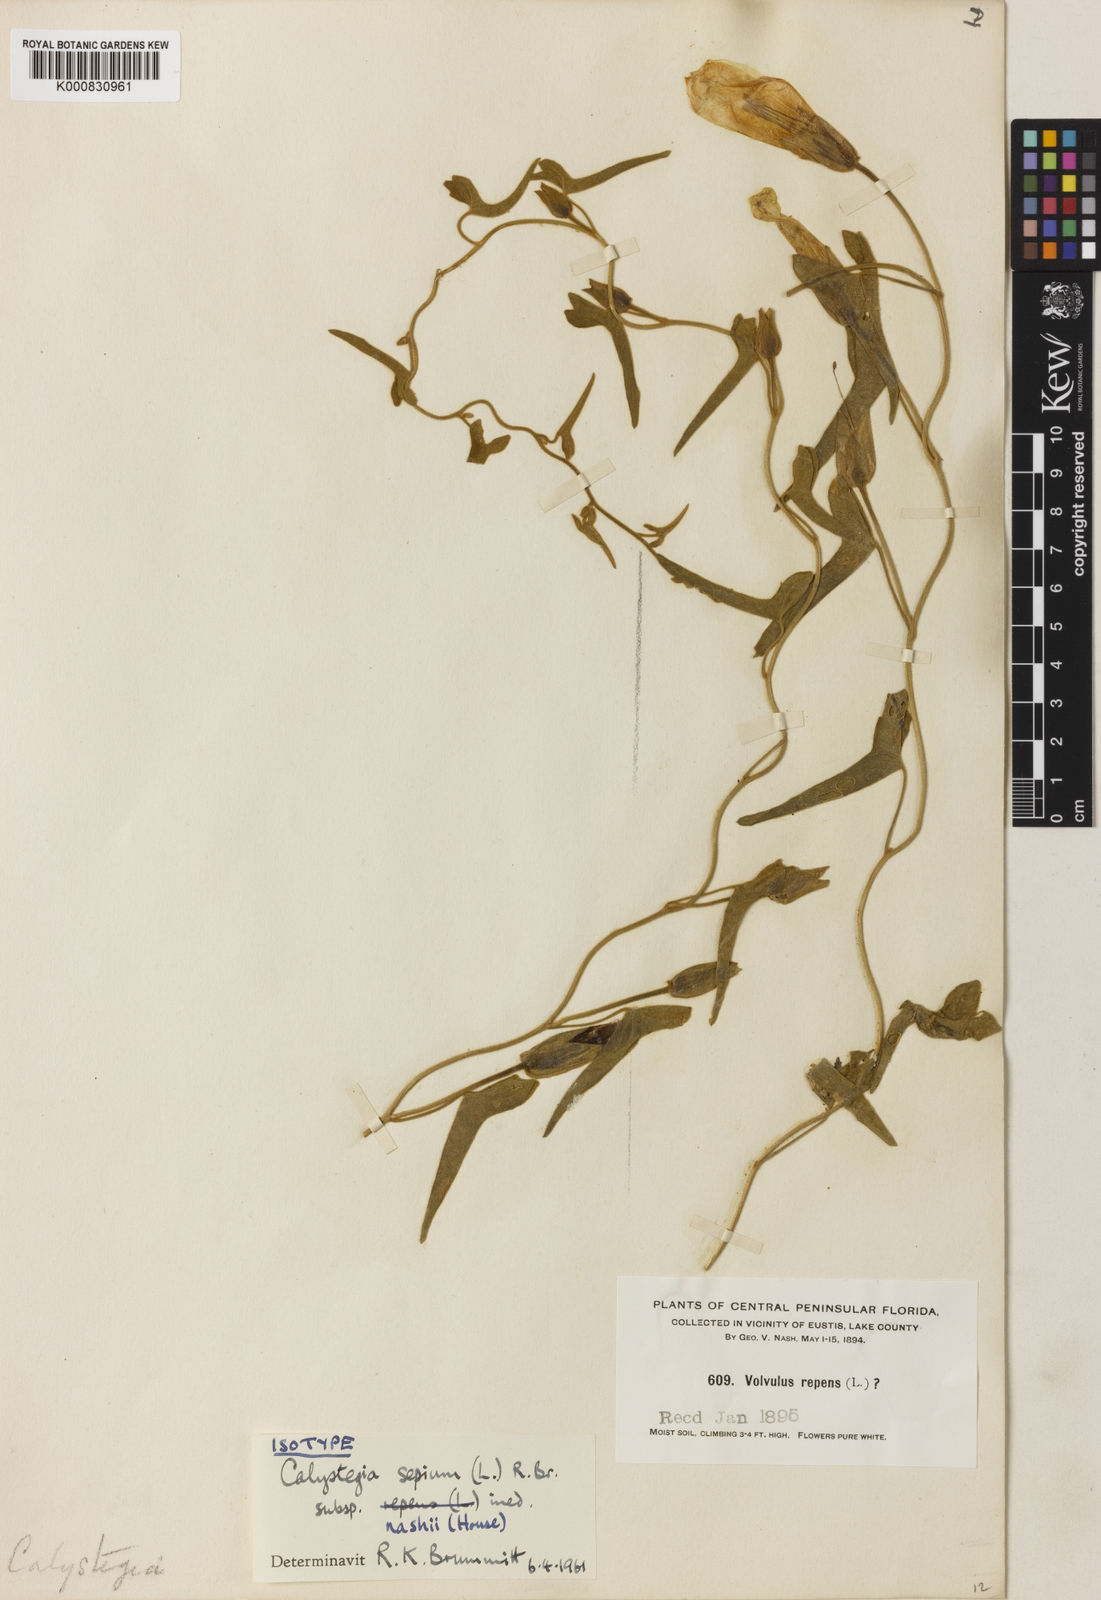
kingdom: Plantae
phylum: Tracheophyta
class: Magnoliopsida
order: Solanales
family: Convolvulaceae
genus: Calystegia
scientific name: Calystegia sepium
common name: Hedge bindweed
